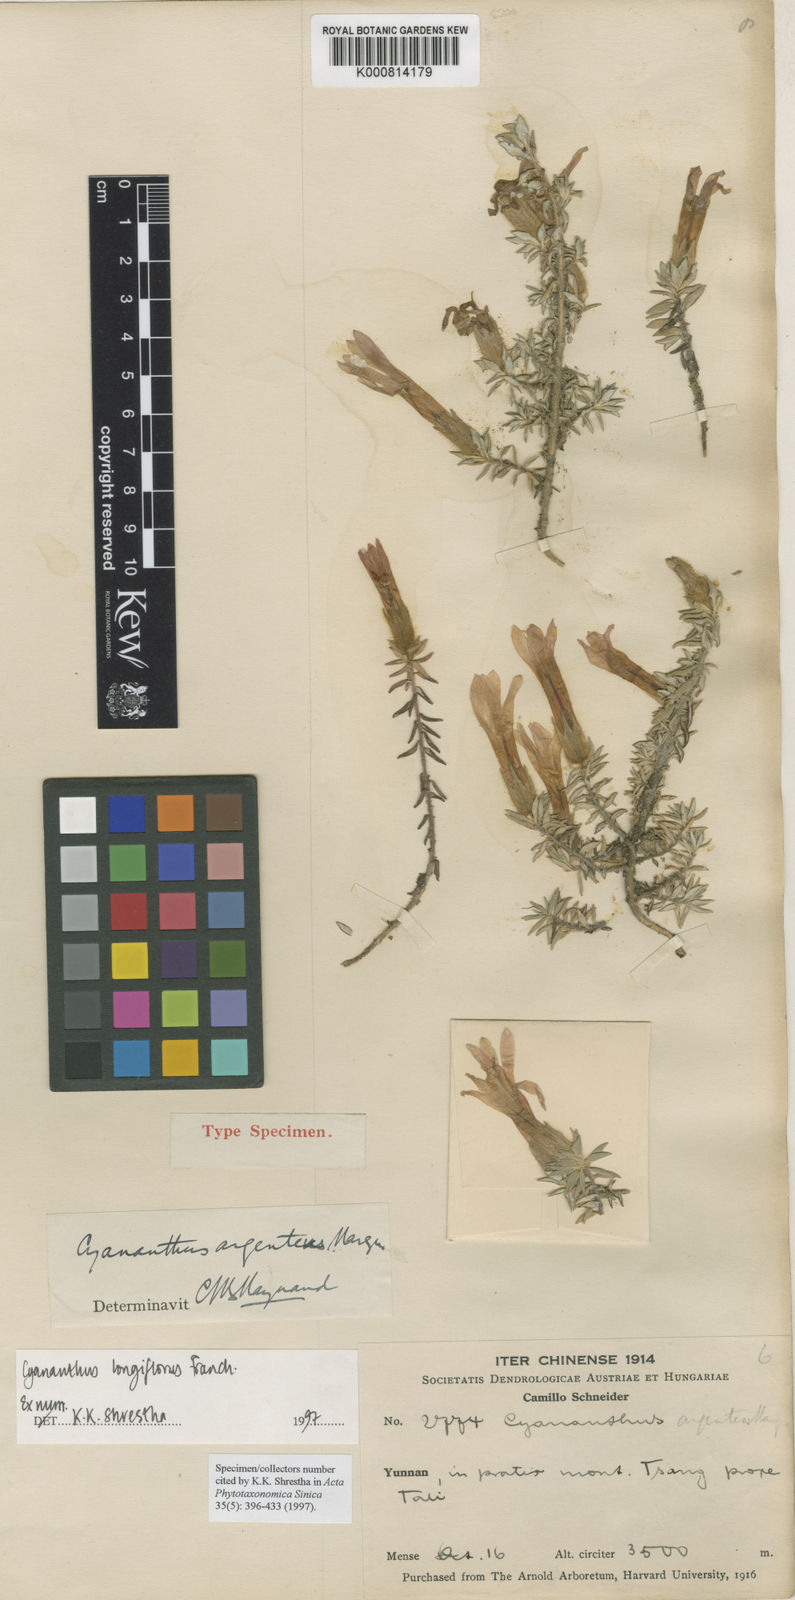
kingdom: Plantae
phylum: Tracheophyta
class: Magnoliopsida
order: Asterales
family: Campanulaceae
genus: Cyananthus
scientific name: Cyananthus longiflorus
